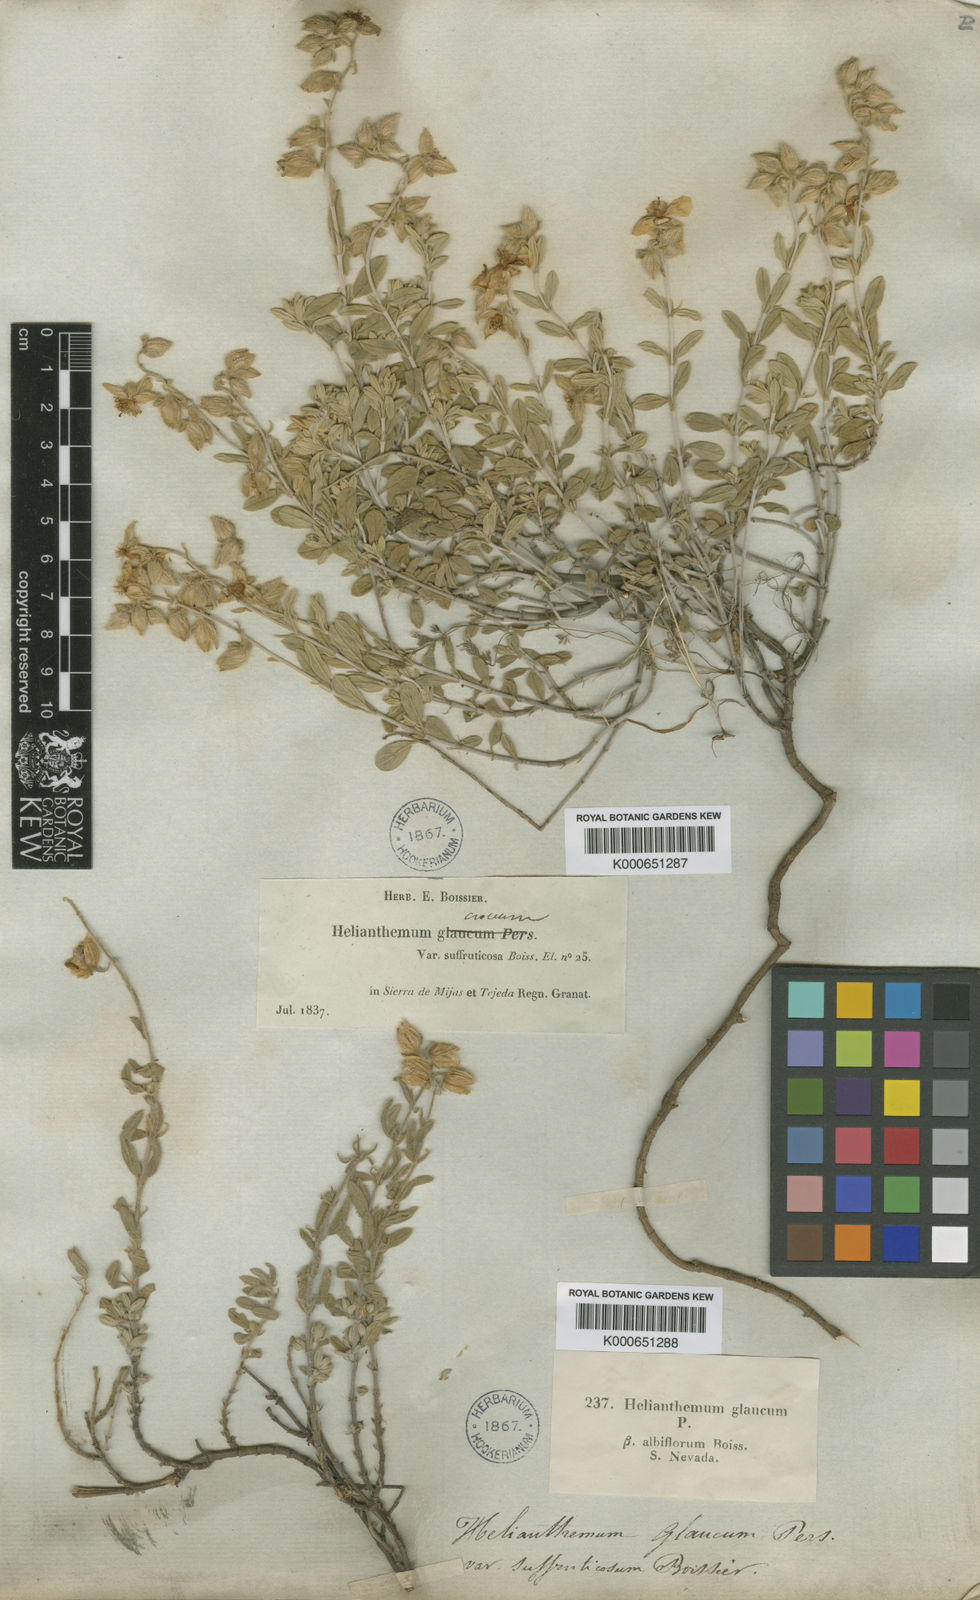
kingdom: Plantae
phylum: Tracheophyta
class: Magnoliopsida
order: Malvales
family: Cistaceae
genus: Helianthemum
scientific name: Helianthemum croceum
